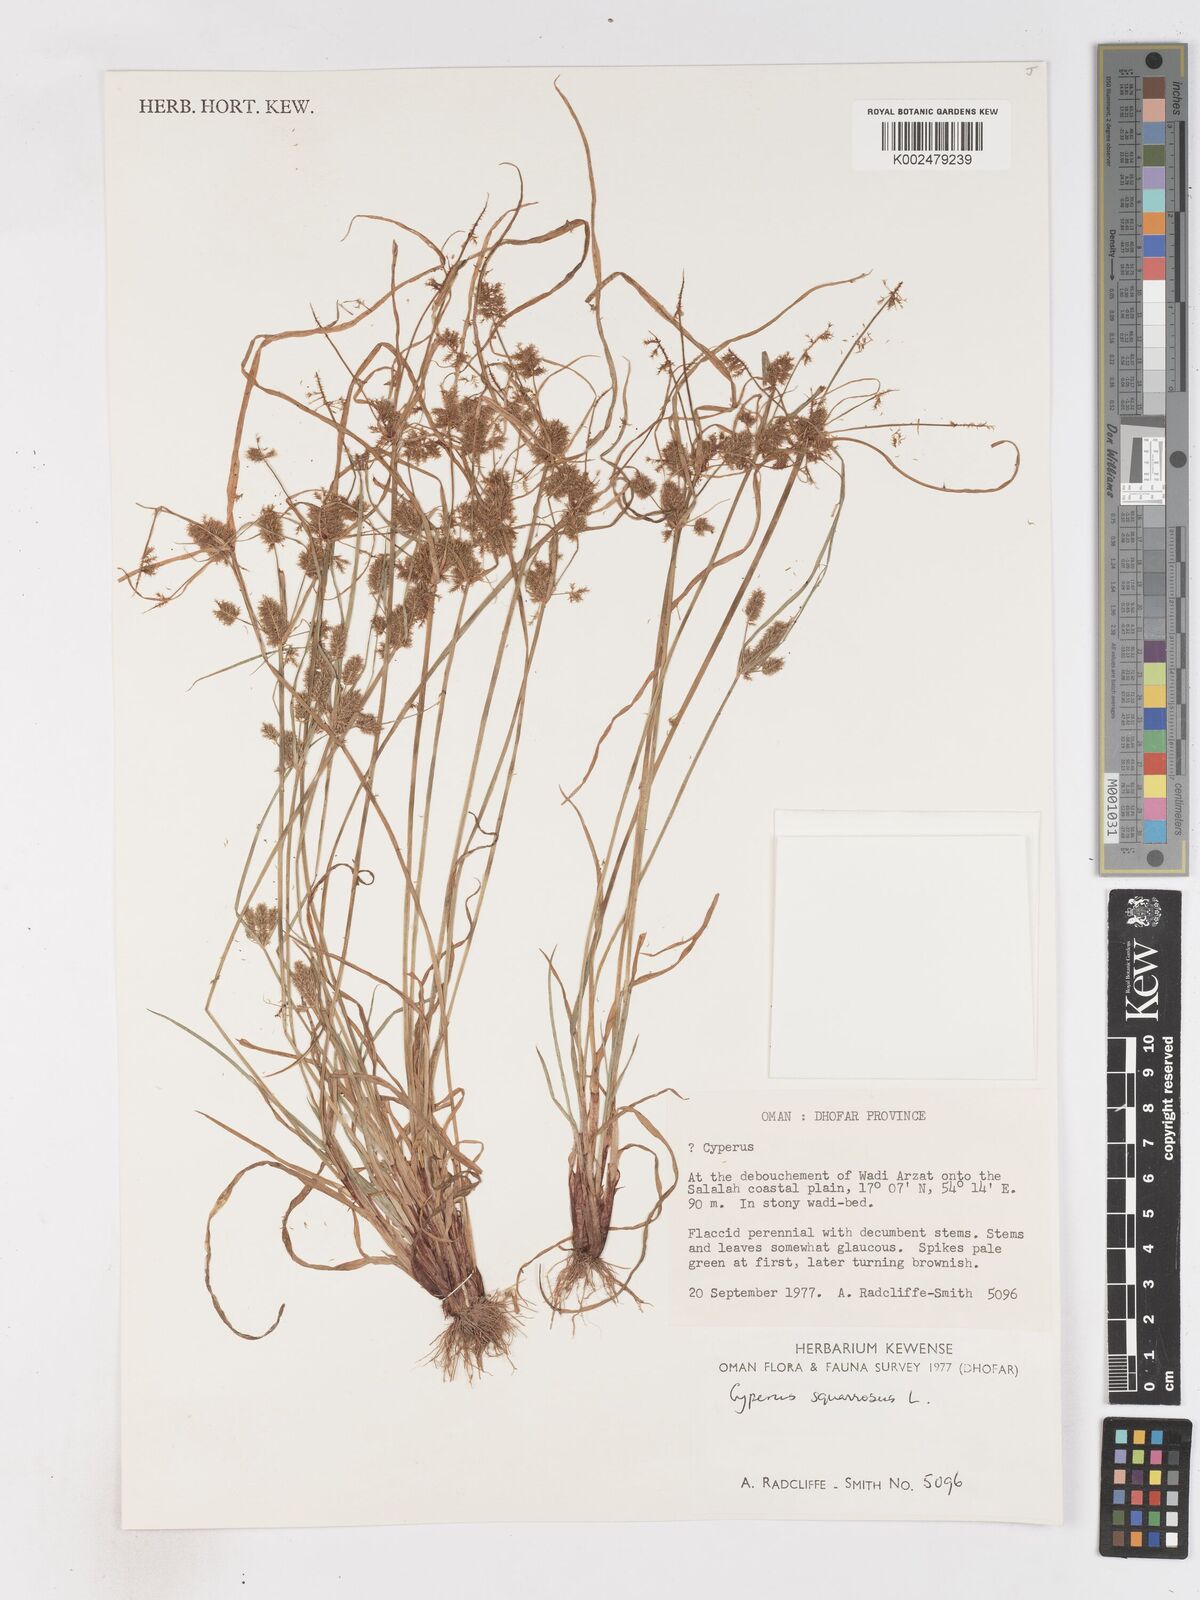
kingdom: Plantae
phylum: Tracheophyta
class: Liliopsida
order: Poales
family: Cyperaceae
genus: Cyperus
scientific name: Cyperus squarrosus
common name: Awned cyperus
